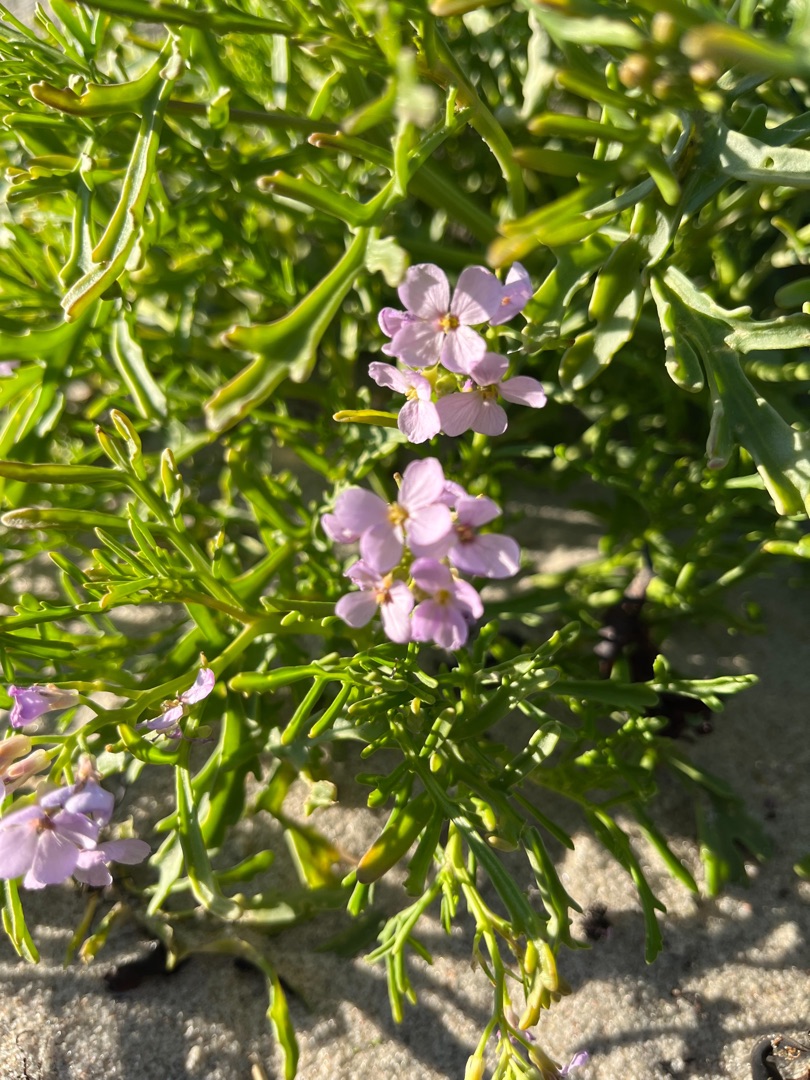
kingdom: Plantae
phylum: Tracheophyta
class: Magnoliopsida
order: Brassicales
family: Brassicaceae
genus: Cakile
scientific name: Cakile maritima
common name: Strandsennep
